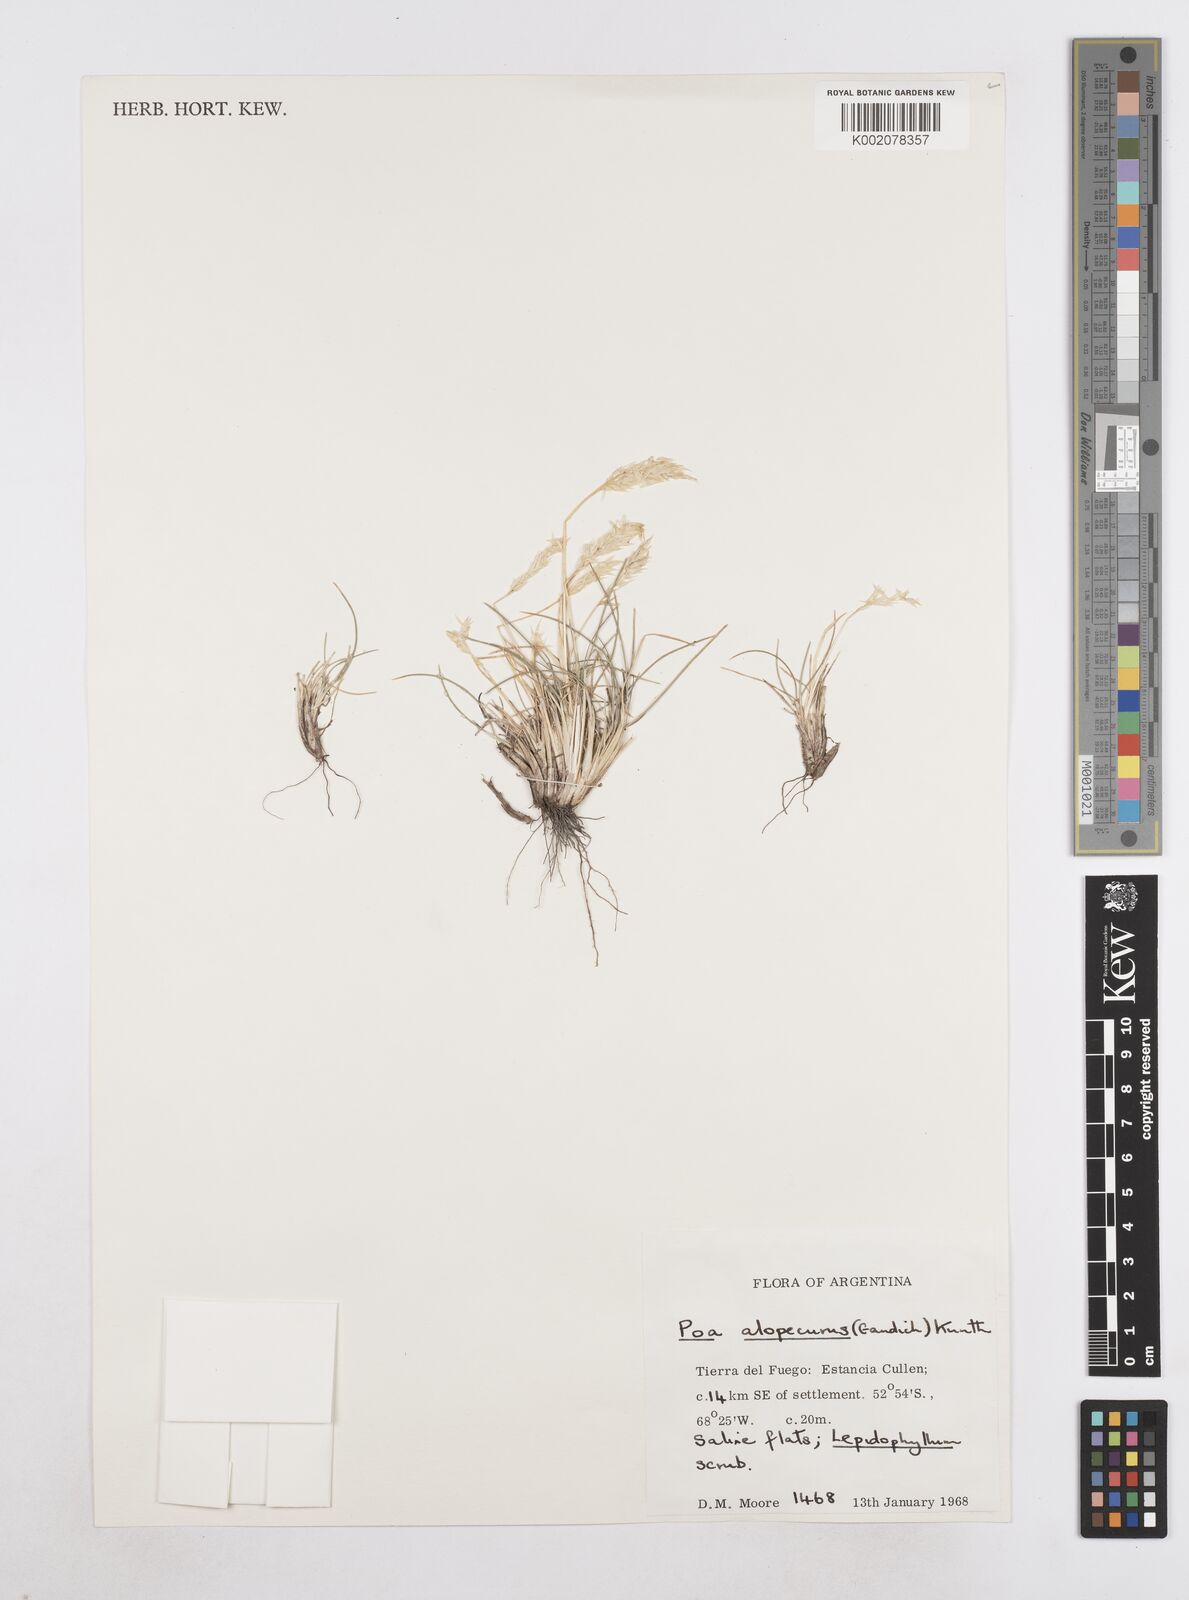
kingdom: Plantae
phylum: Tracheophyta
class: Liliopsida
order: Poales
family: Poaceae
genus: Poa
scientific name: Poa alopecurus
